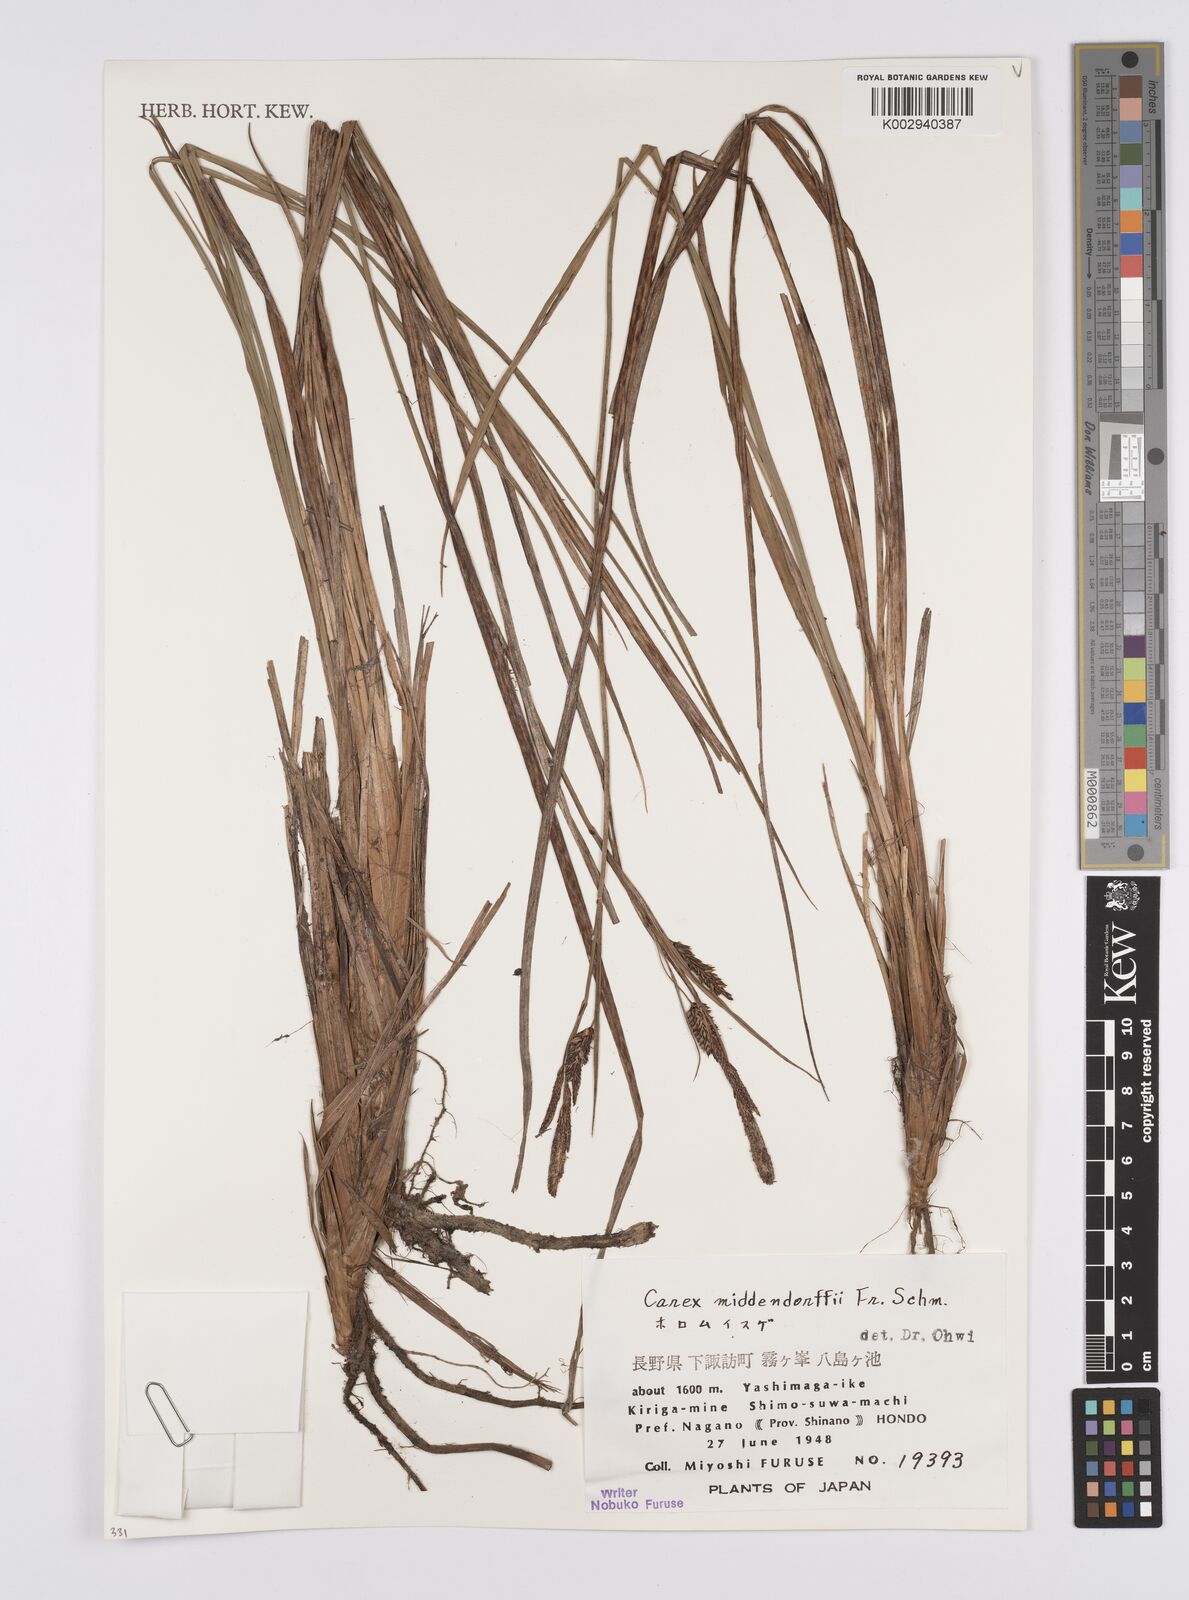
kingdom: Plantae
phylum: Tracheophyta
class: Liliopsida
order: Poales
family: Cyperaceae
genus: Carex
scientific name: Carex middendorffii
